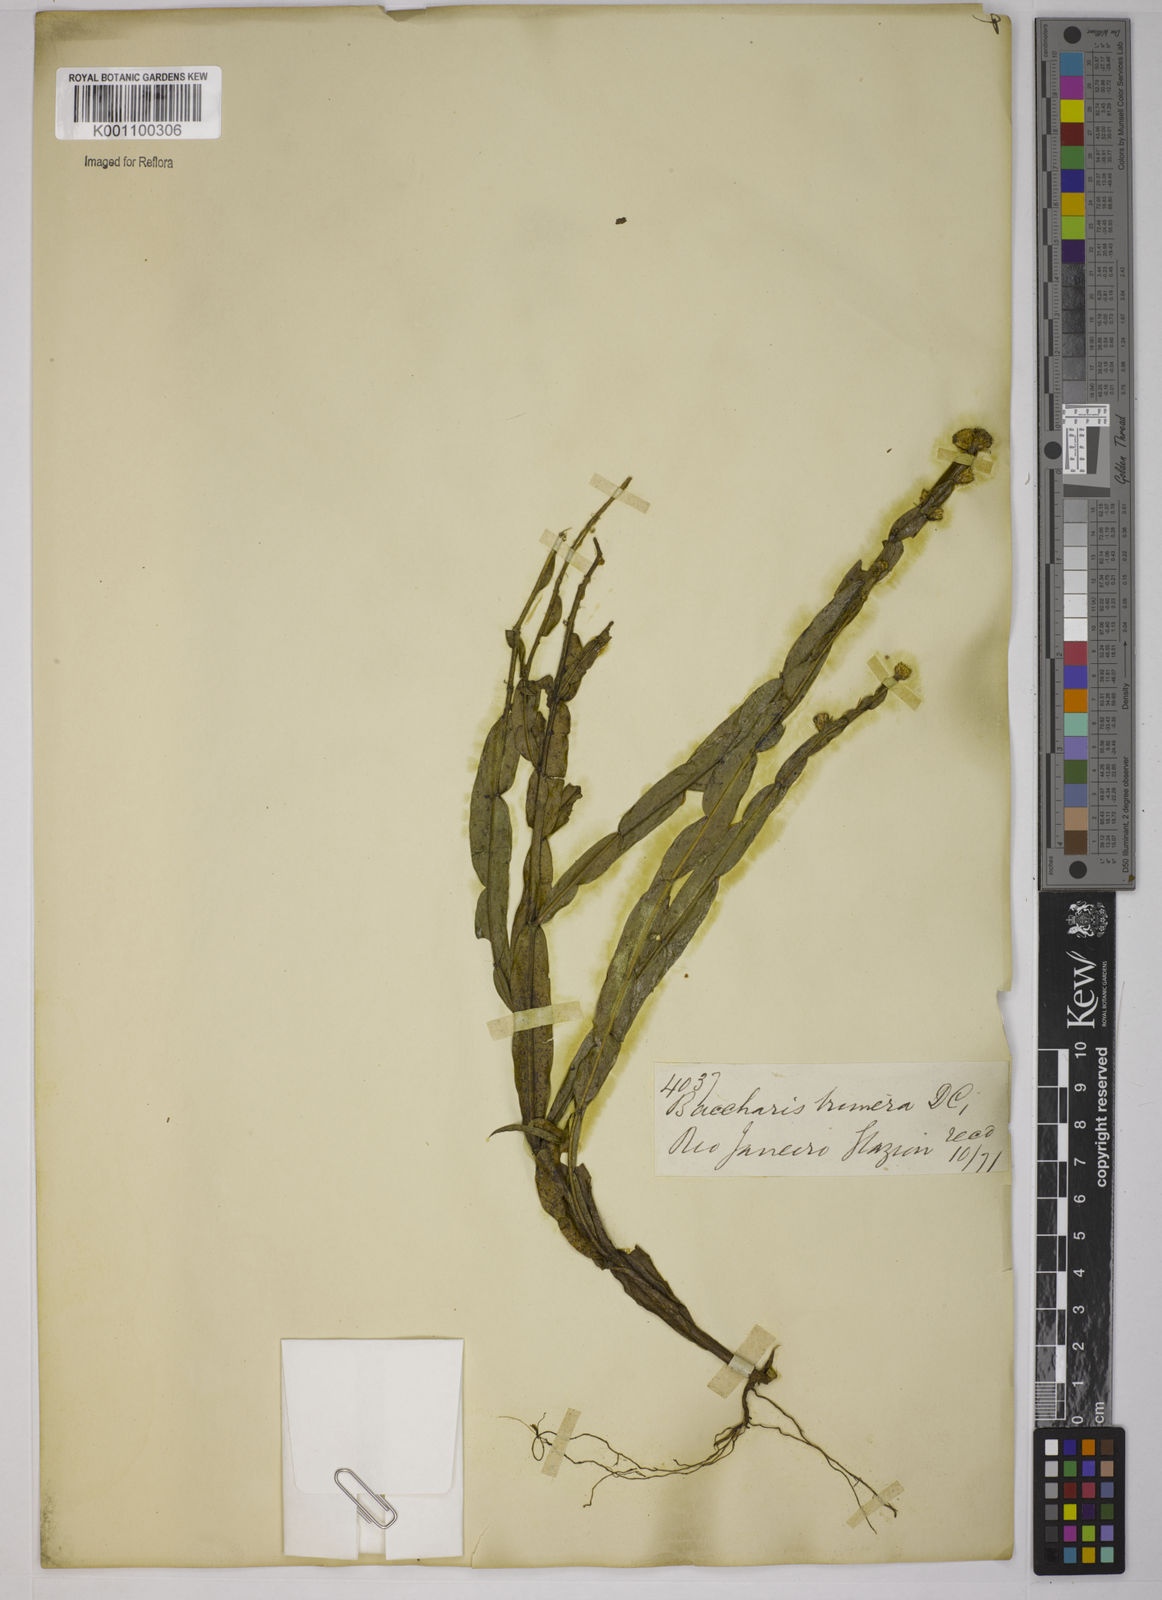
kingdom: Plantae
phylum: Tracheophyta
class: Magnoliopsida
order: Asterales
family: Asteraceae
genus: Baccharis
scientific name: Baccharis trimera
